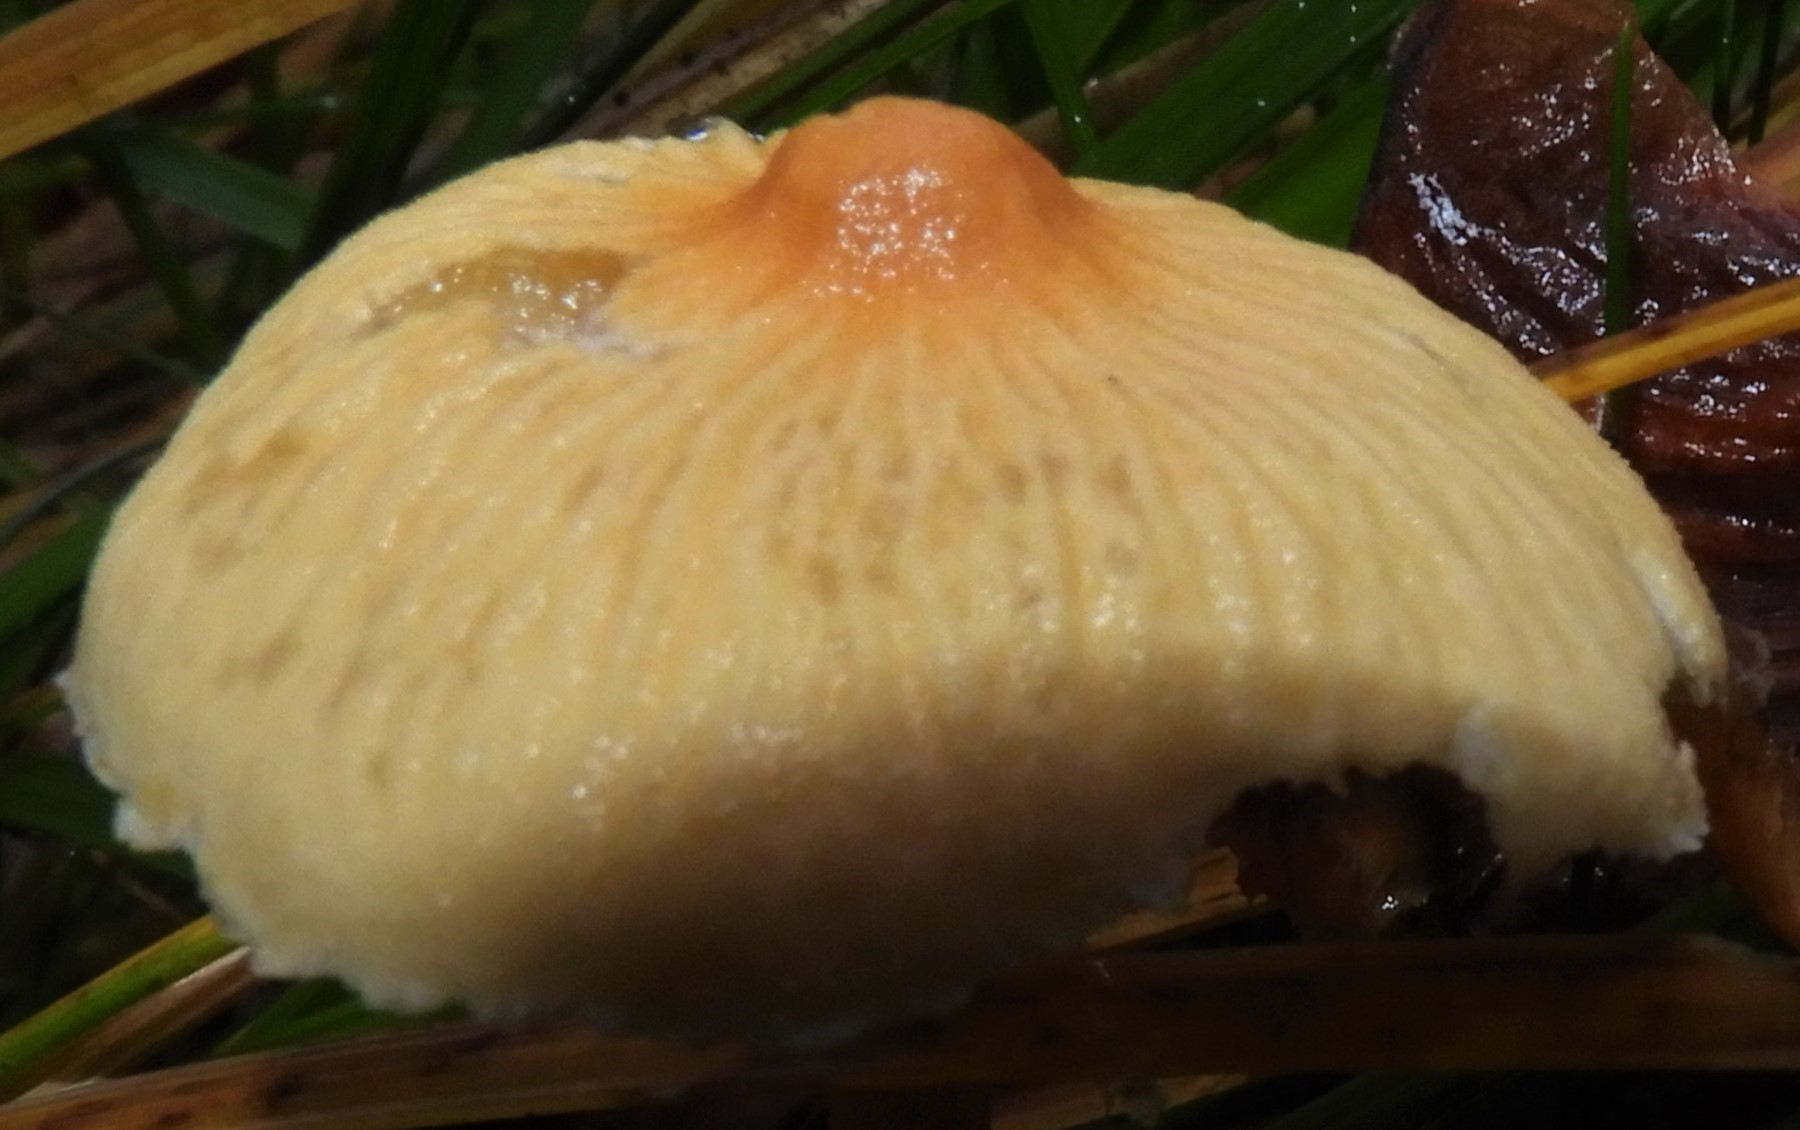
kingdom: Fungi
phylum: Basidiomycota
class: Agaricomycetes
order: Agaricales
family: Tricholomataceae
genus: Cystoderma
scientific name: Cystoderma
